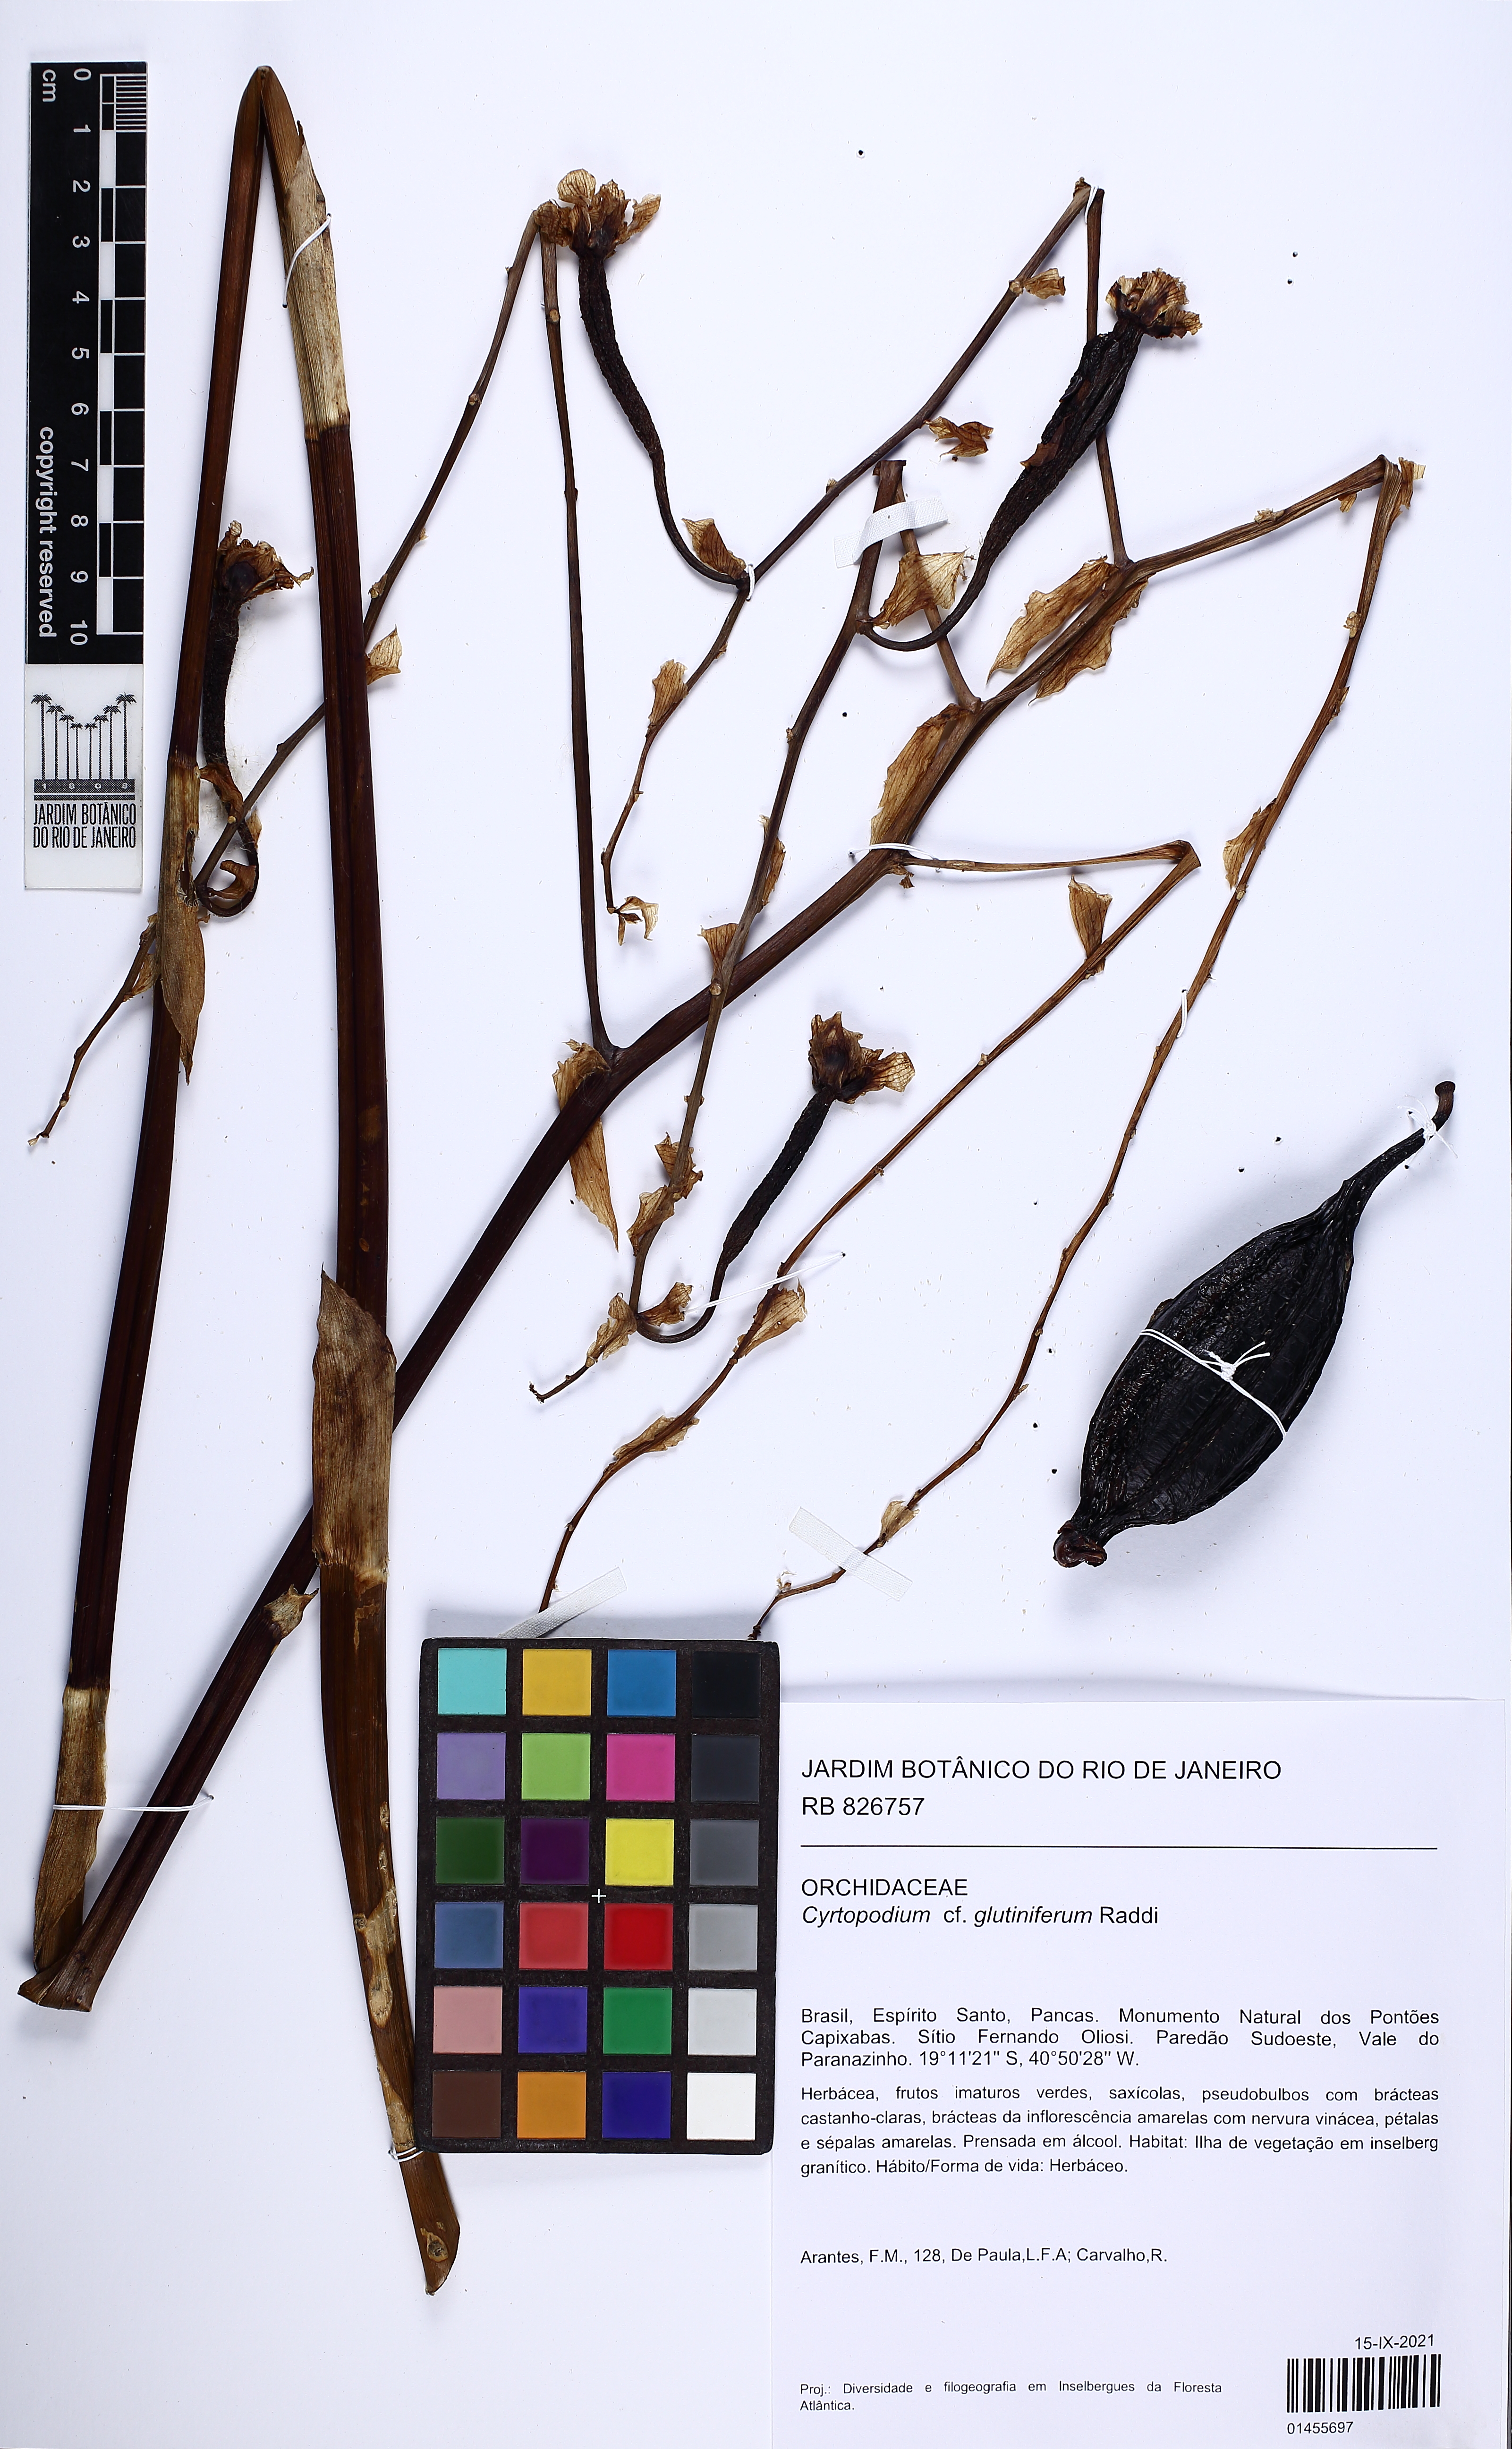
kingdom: Plantae
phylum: Tracheophyta
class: Liliopsida
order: Asparagales
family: Orchidaceae
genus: Cyrtopodium
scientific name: Cyrtopodium glutiniferum
